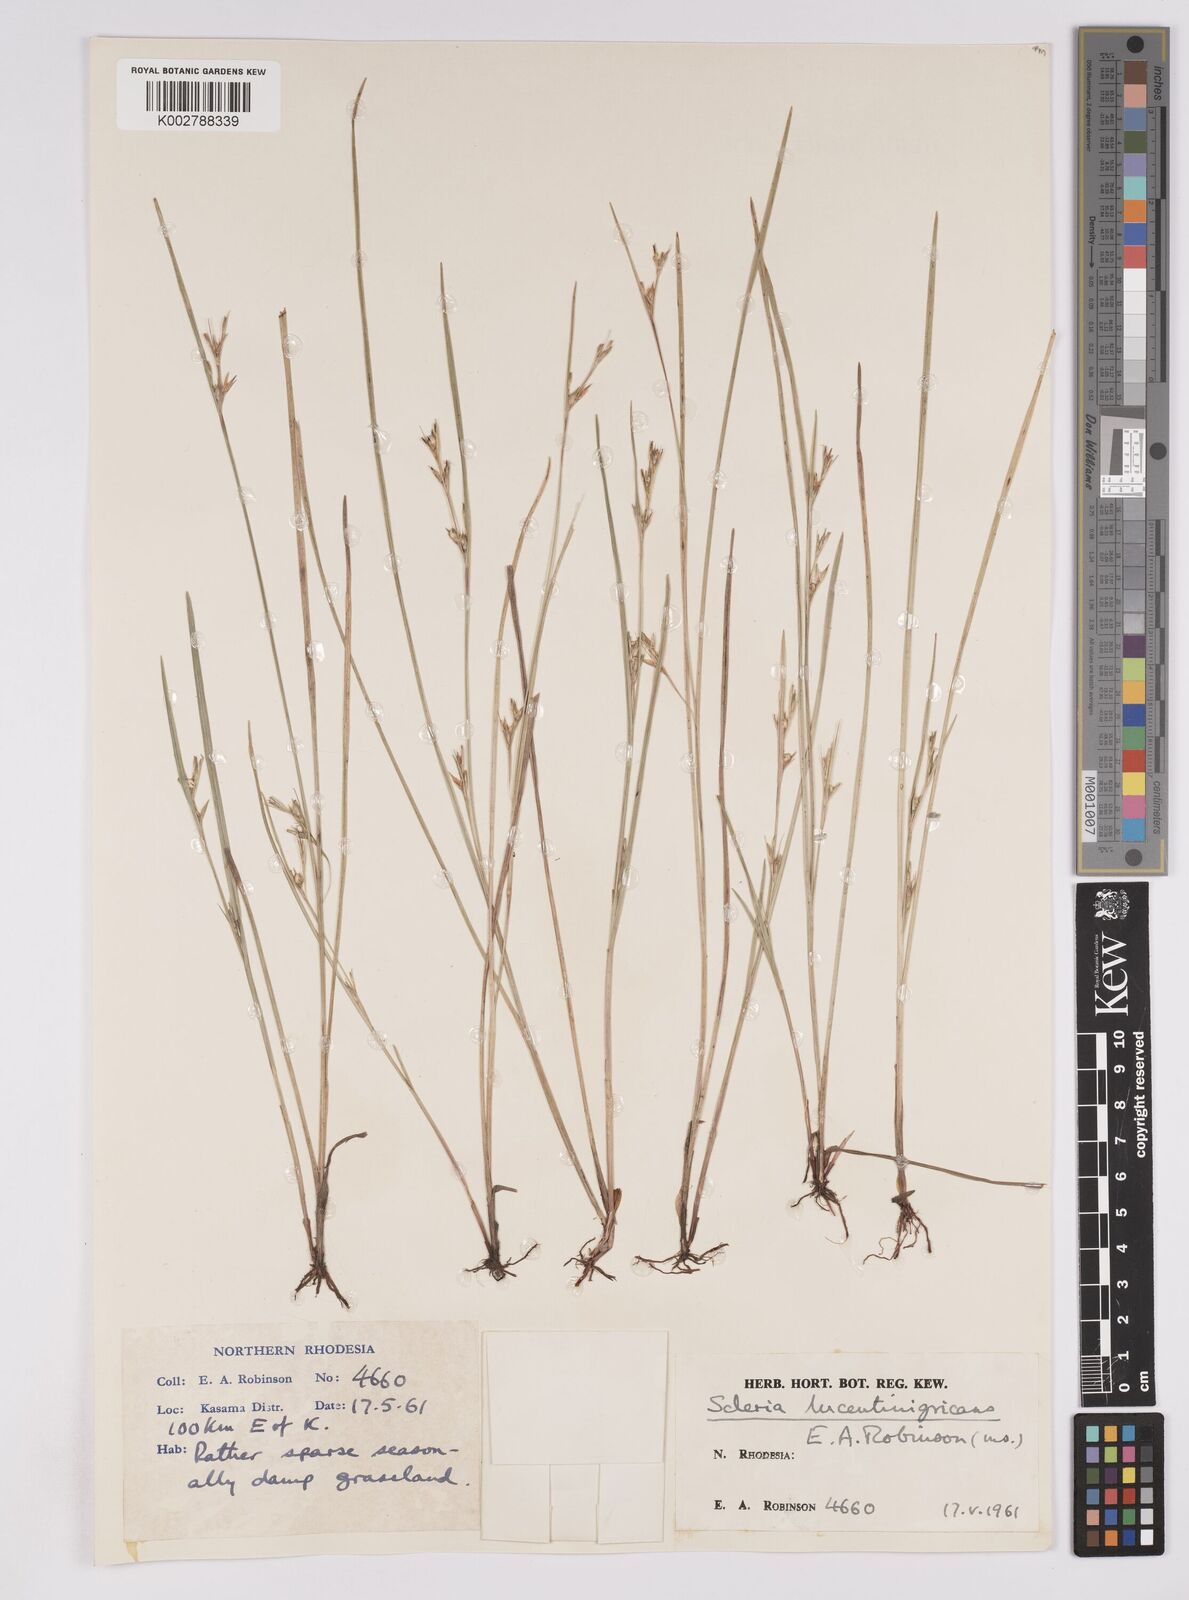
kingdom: Plantae
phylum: Tracheophyta
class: Liliopsida
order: Poales
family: Cyperaceae
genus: Scleria
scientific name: Scleria lucentinigricans
